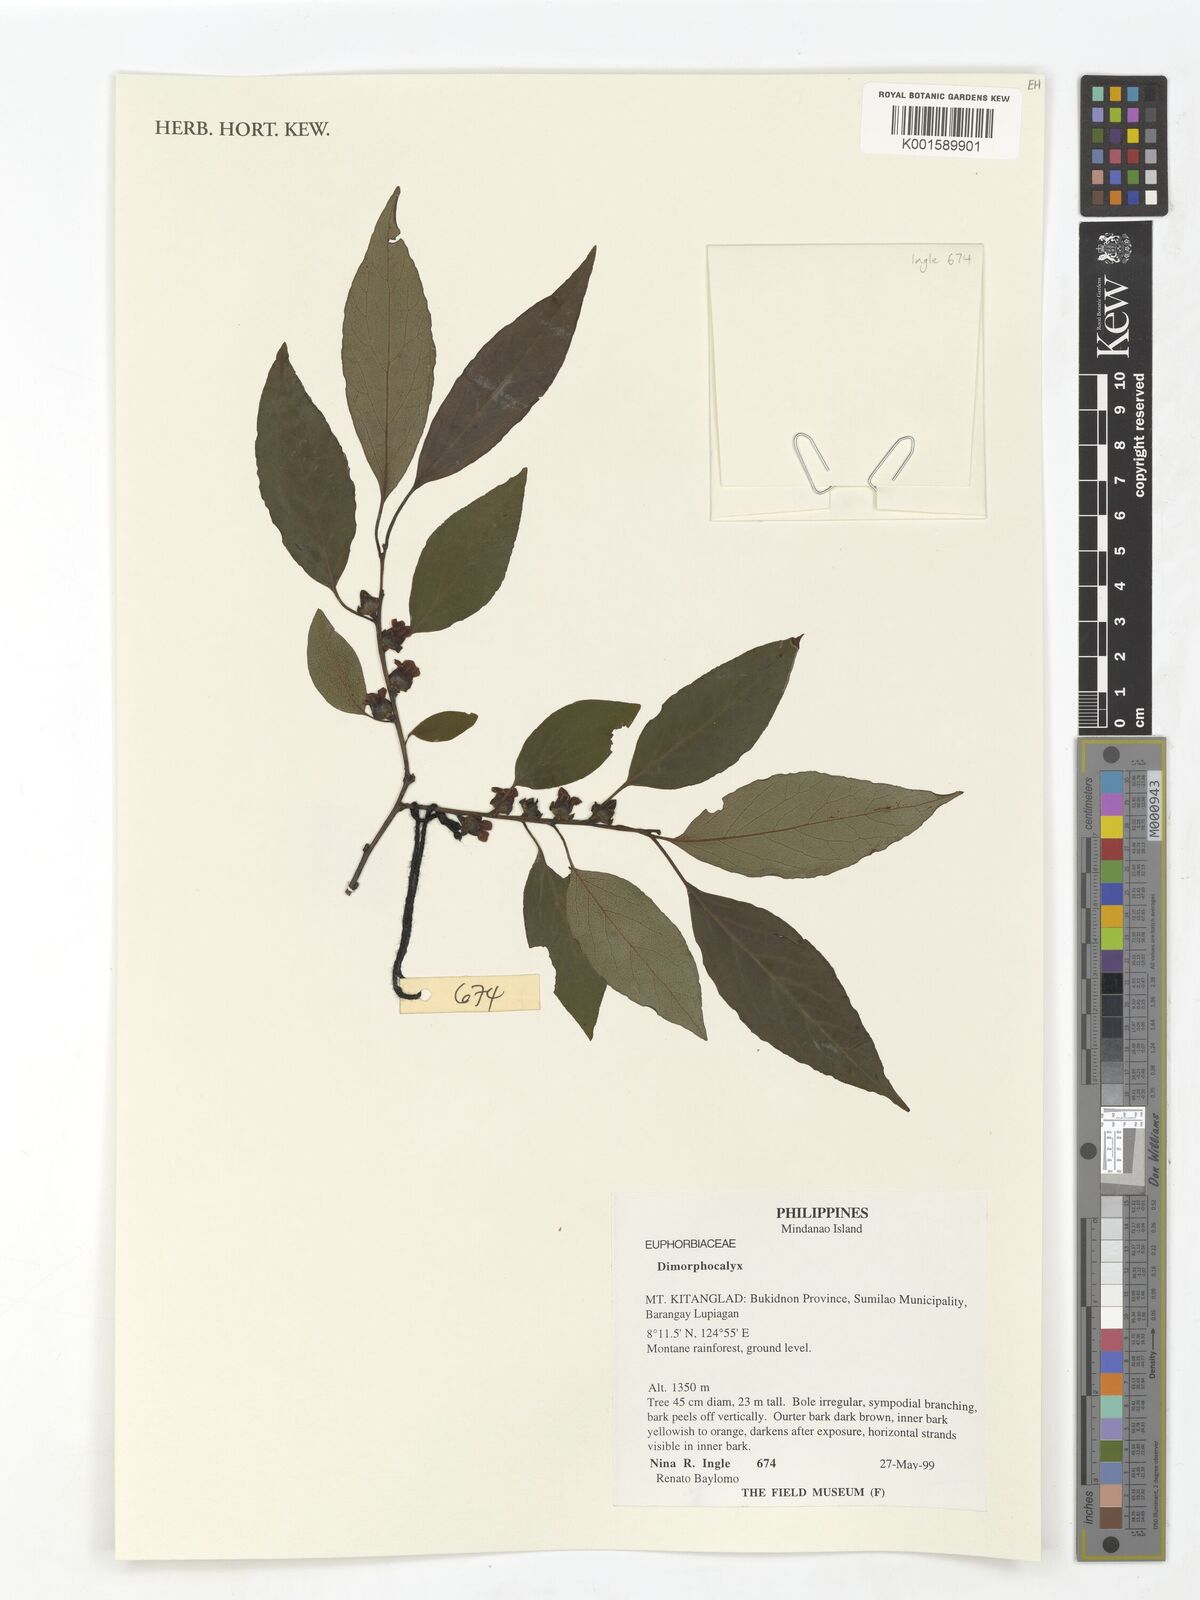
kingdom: Plantae
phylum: Tracheophyta
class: Magnoliopsida
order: Malpighiales
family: Euphorbiaceae
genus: Tritaxis
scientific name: Tritaxis
